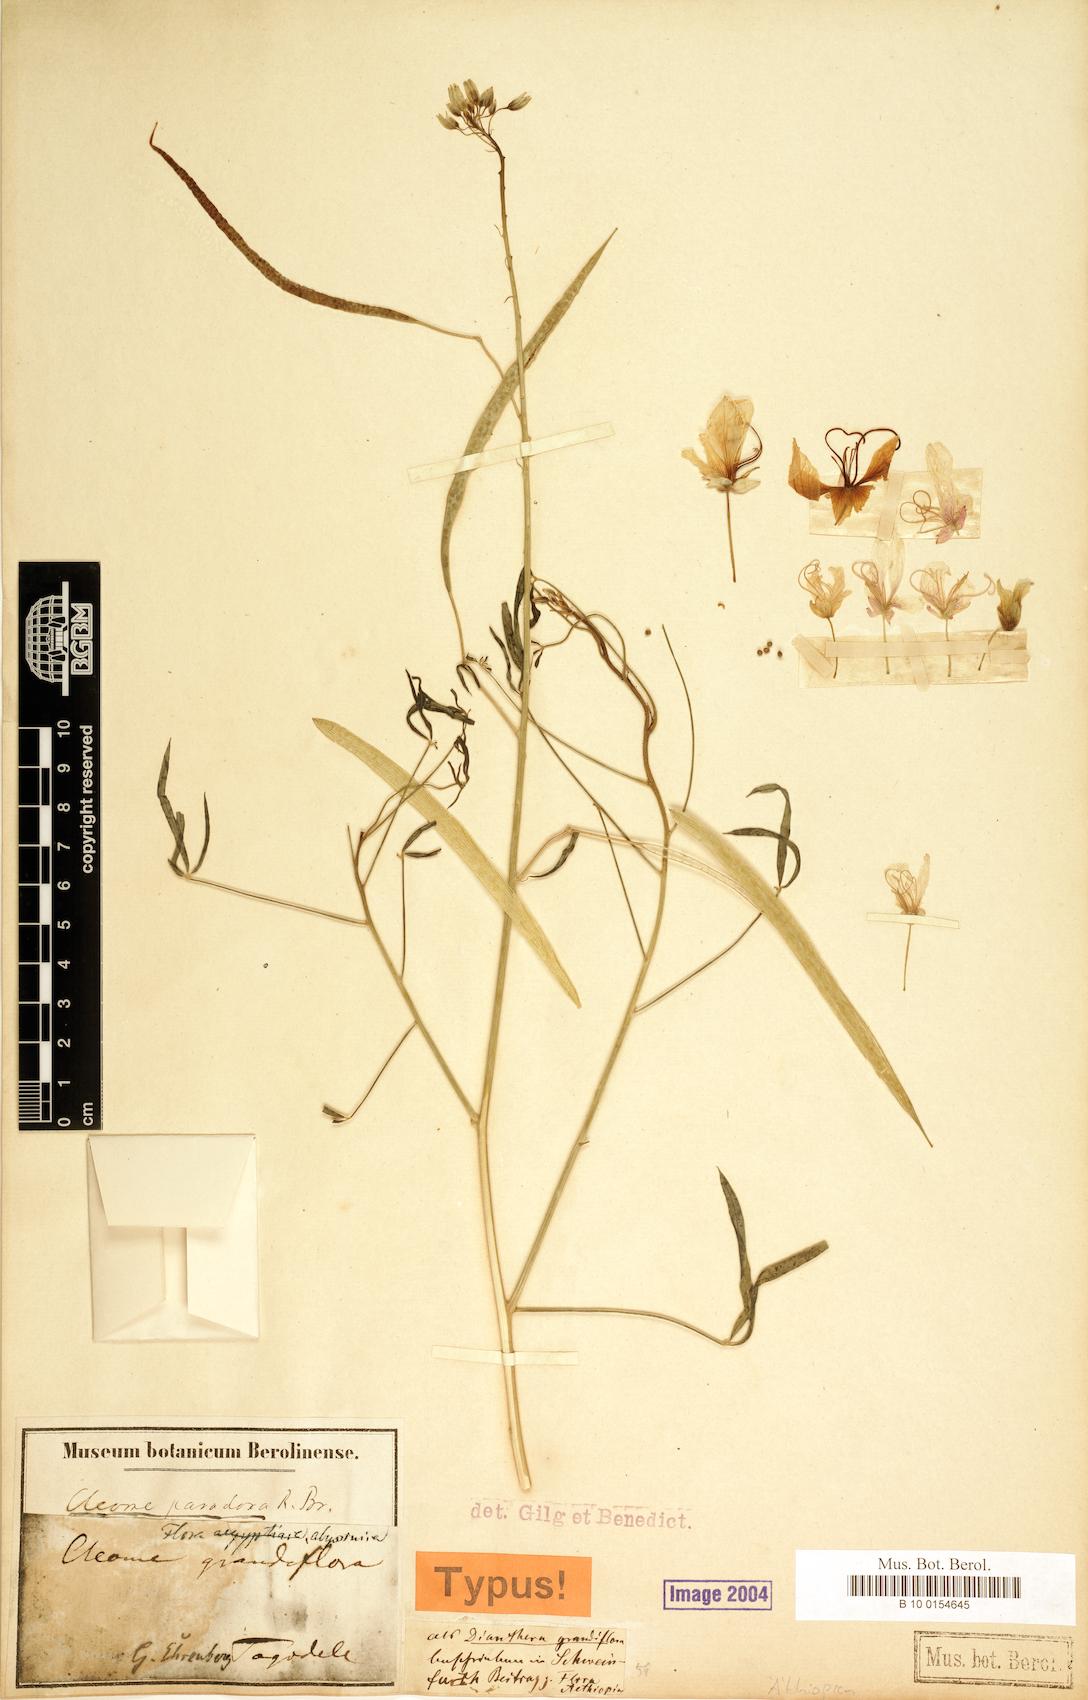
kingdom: Plantae
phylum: Tracheophyta
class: Magnoliopsida
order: Brassicales
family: Cleomaceae
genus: Coalisina
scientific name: Coalisina paradoxa
